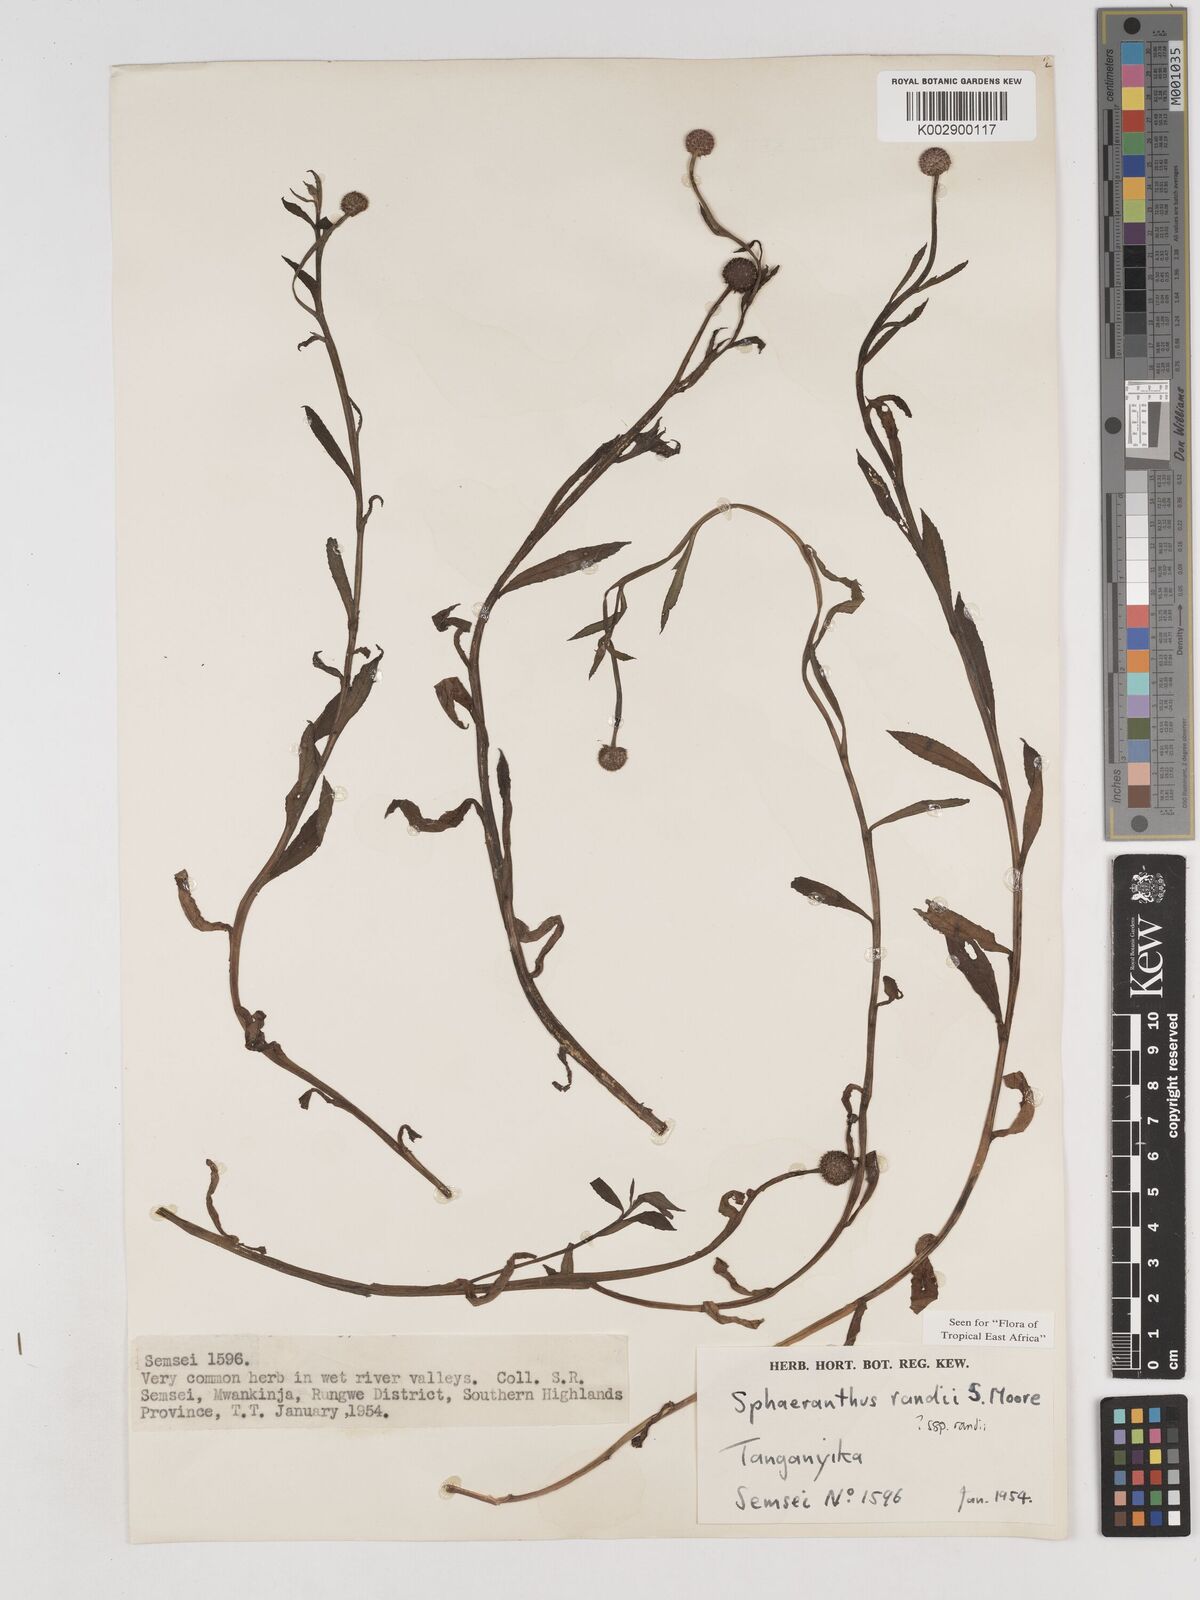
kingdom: Plantae
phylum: Tracheophyta
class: Magnoliopsida
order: Asterales
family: Asteraceae
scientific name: Asteraceae
